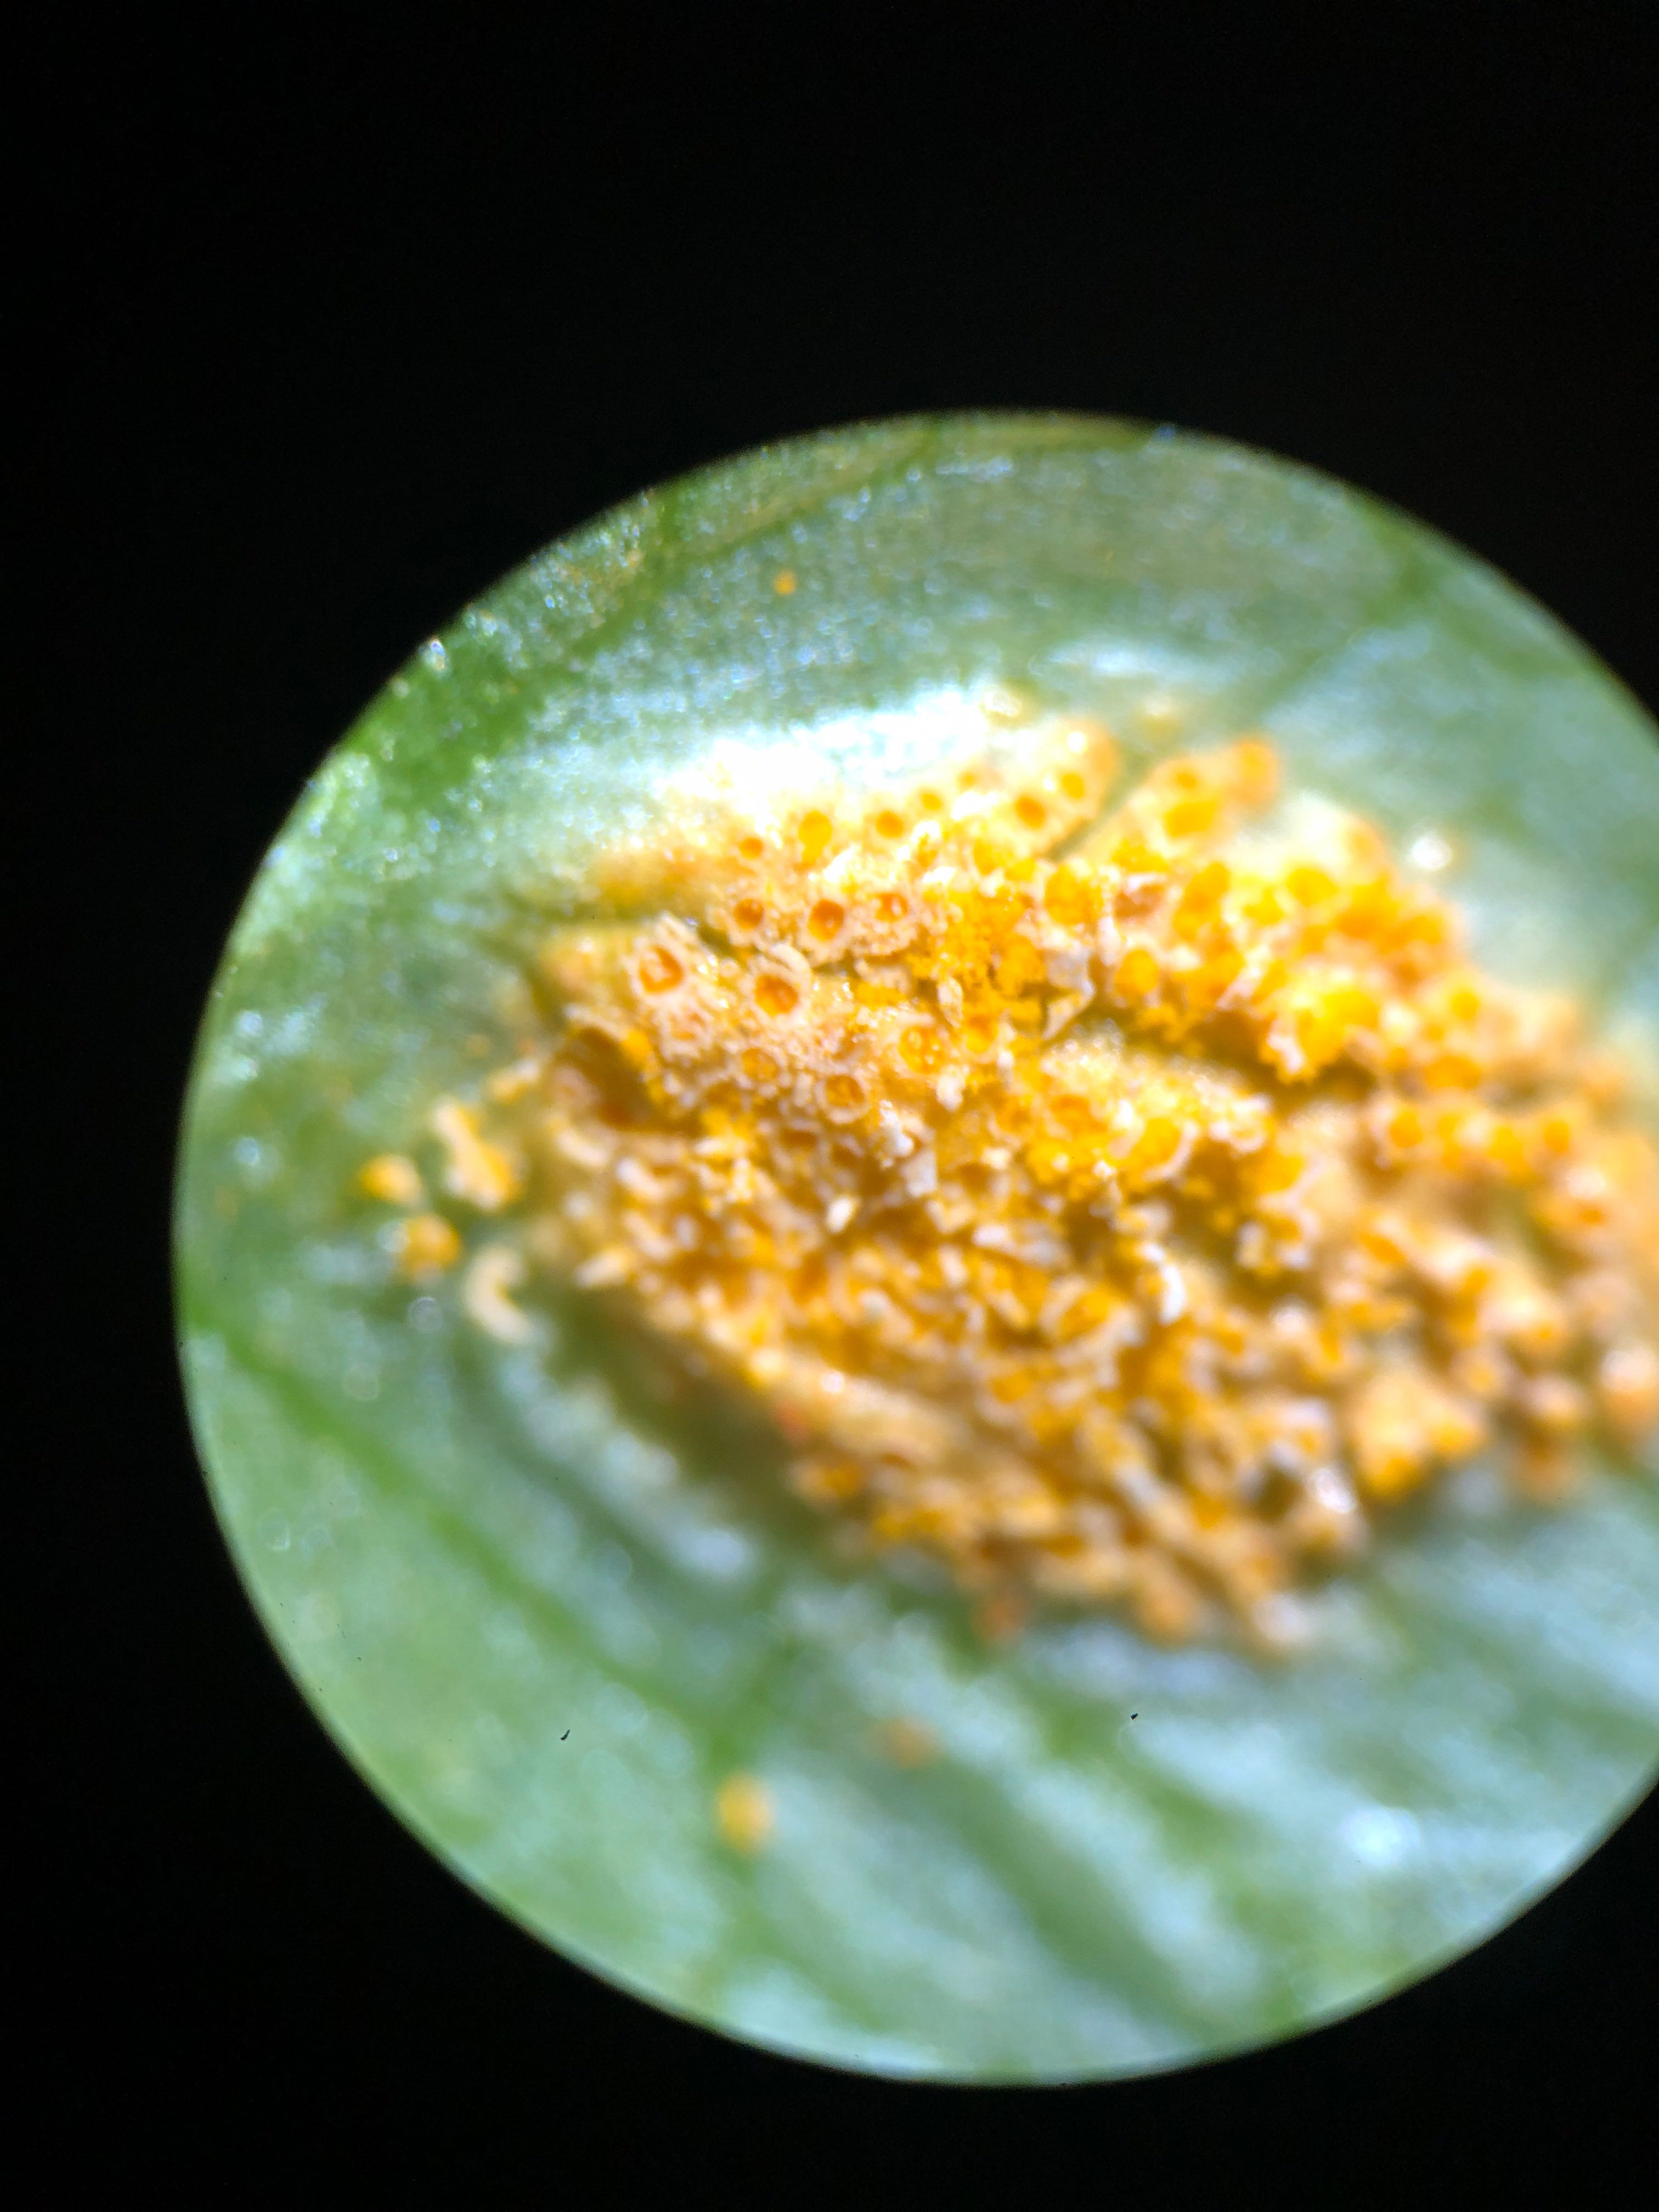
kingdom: Fungi
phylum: Basidiomycota
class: Pucciniomycetes
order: Pucciniales
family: Pucciniaceae
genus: Uromyces
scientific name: Uromyces dactylidis
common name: ranunkel-encellerust
